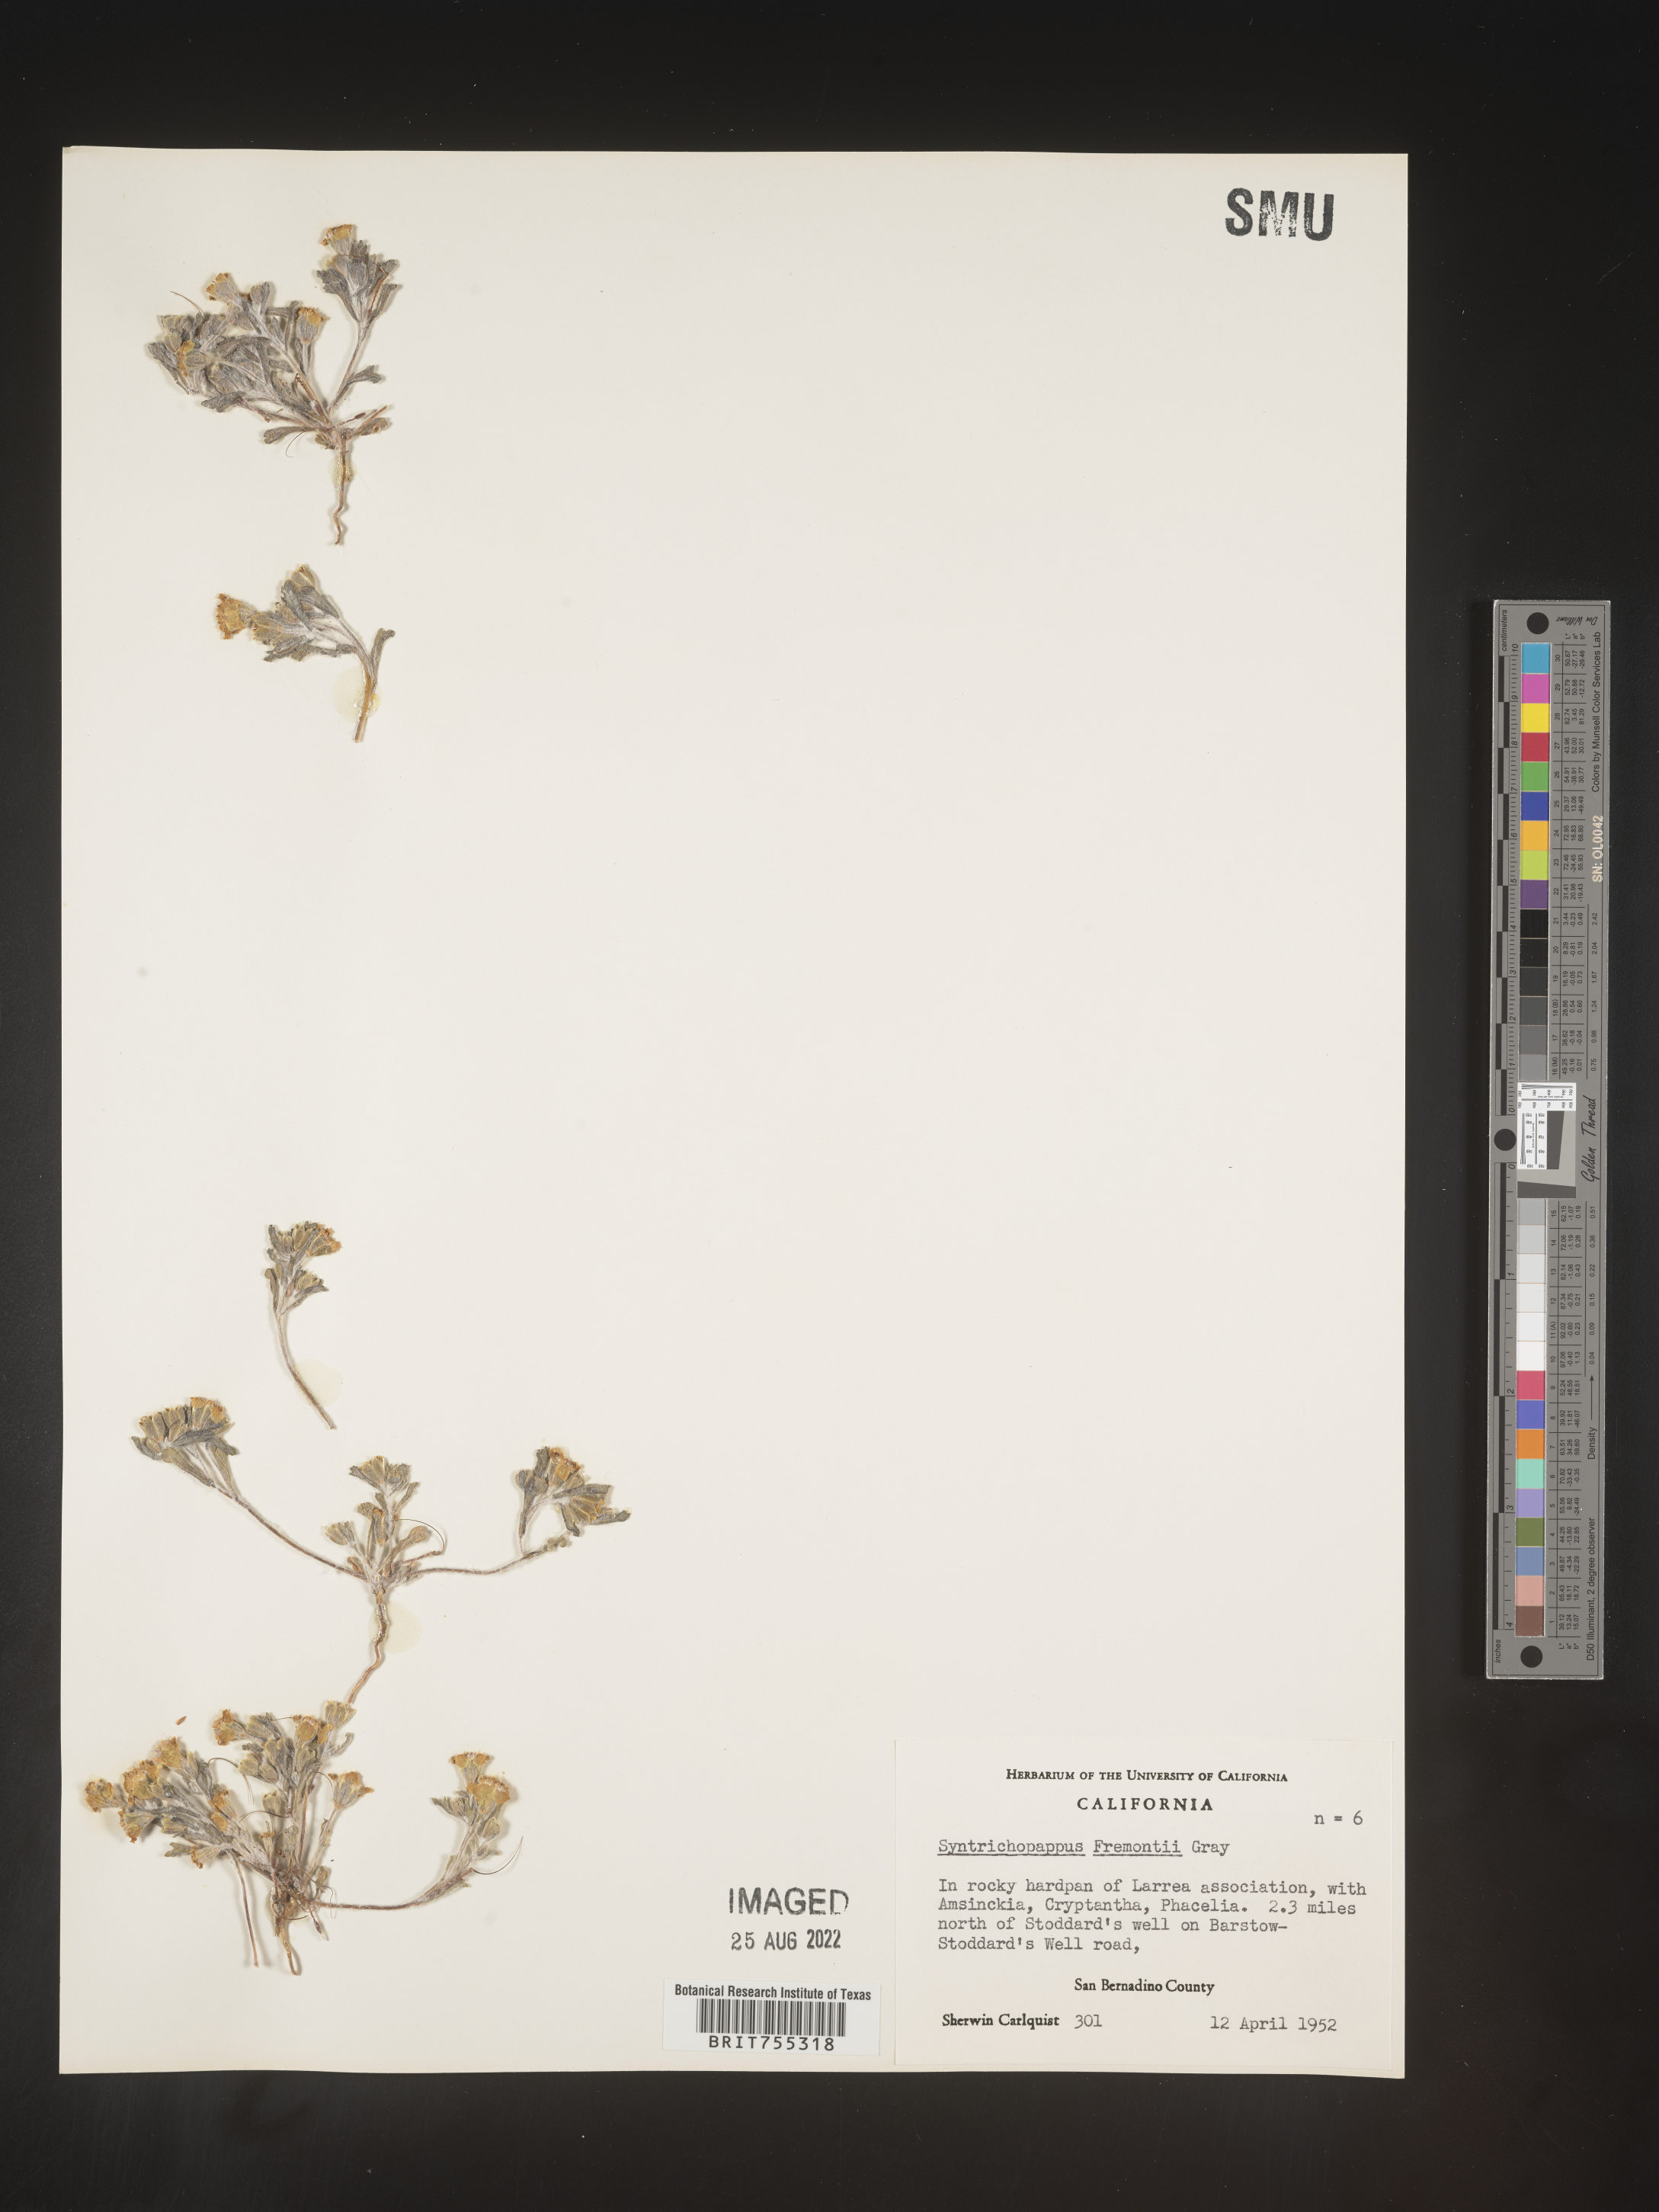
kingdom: Plantae
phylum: Tracheophyta
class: Magnoliopsida
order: Asterales
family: Asteraceae
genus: Syntrichopappus
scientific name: Syntrichopappus
